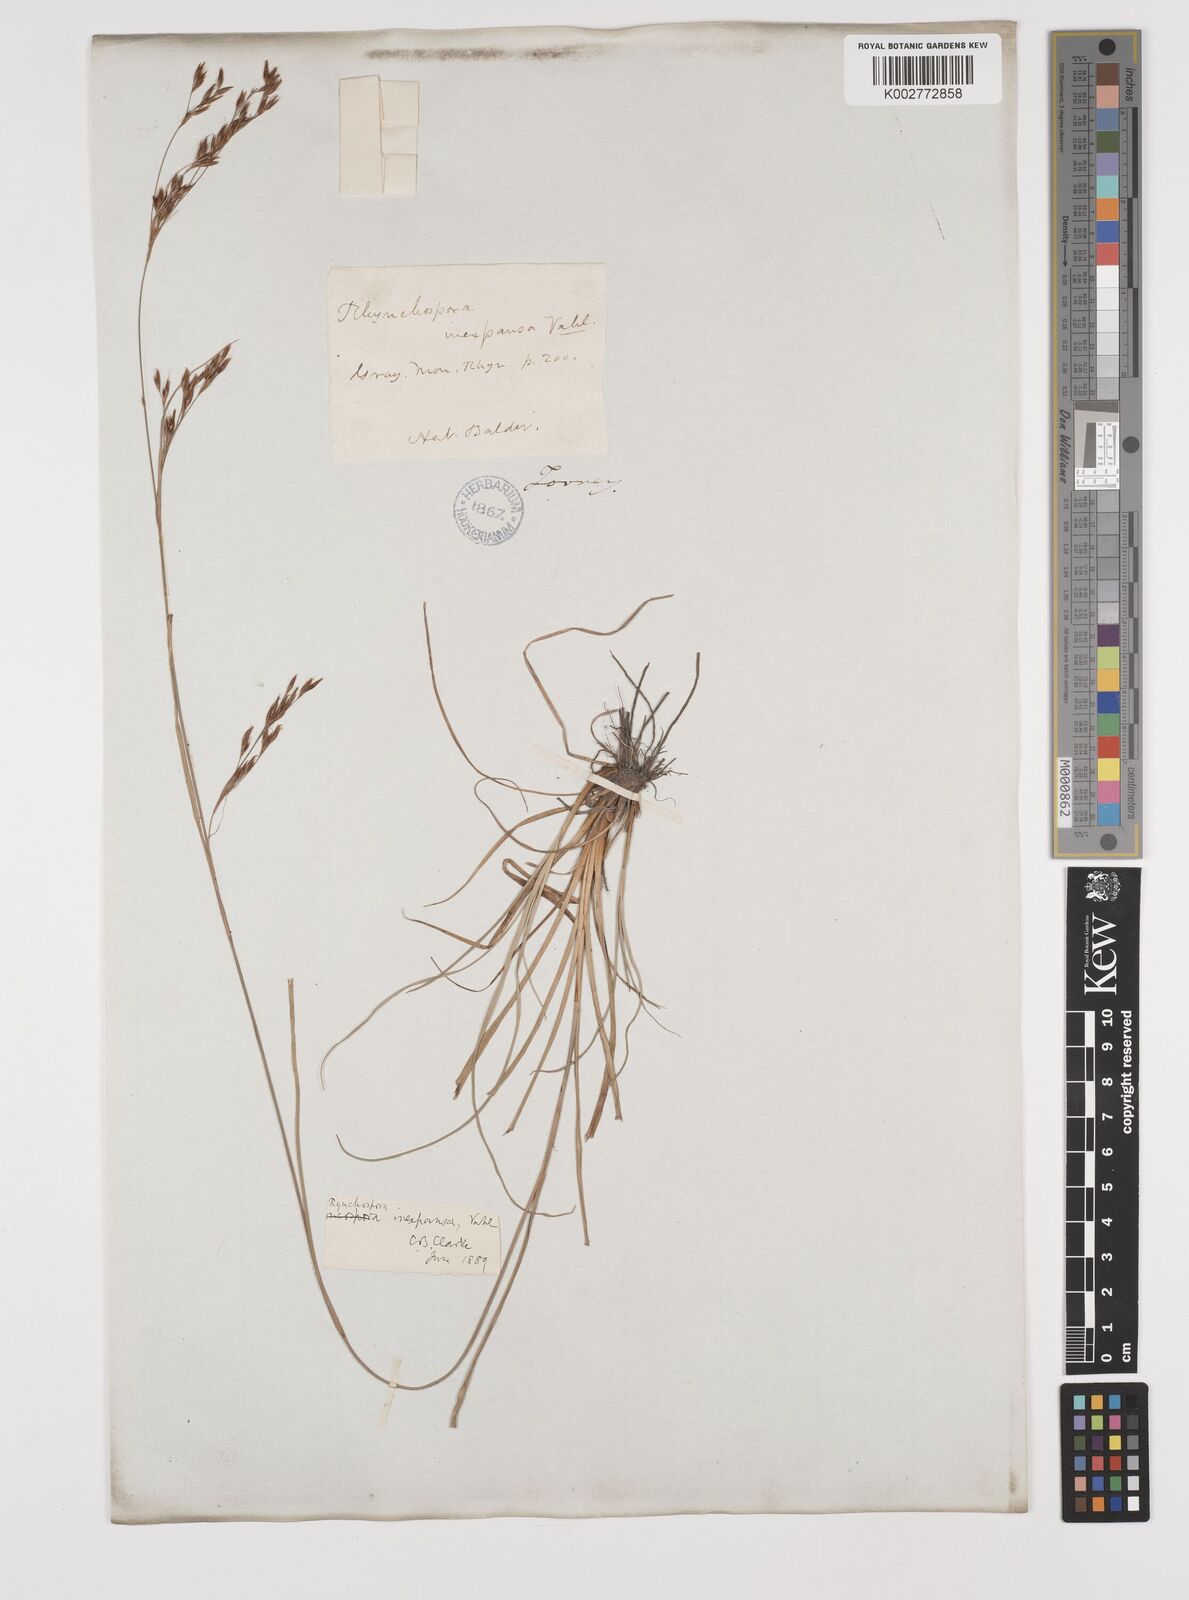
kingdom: Plantae
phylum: Tracheophyta
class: Liliopsida
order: Poales
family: Cyperaceae
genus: Rhynchospora
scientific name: Rhynchospora inexpansa
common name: Nodding beaksedge
